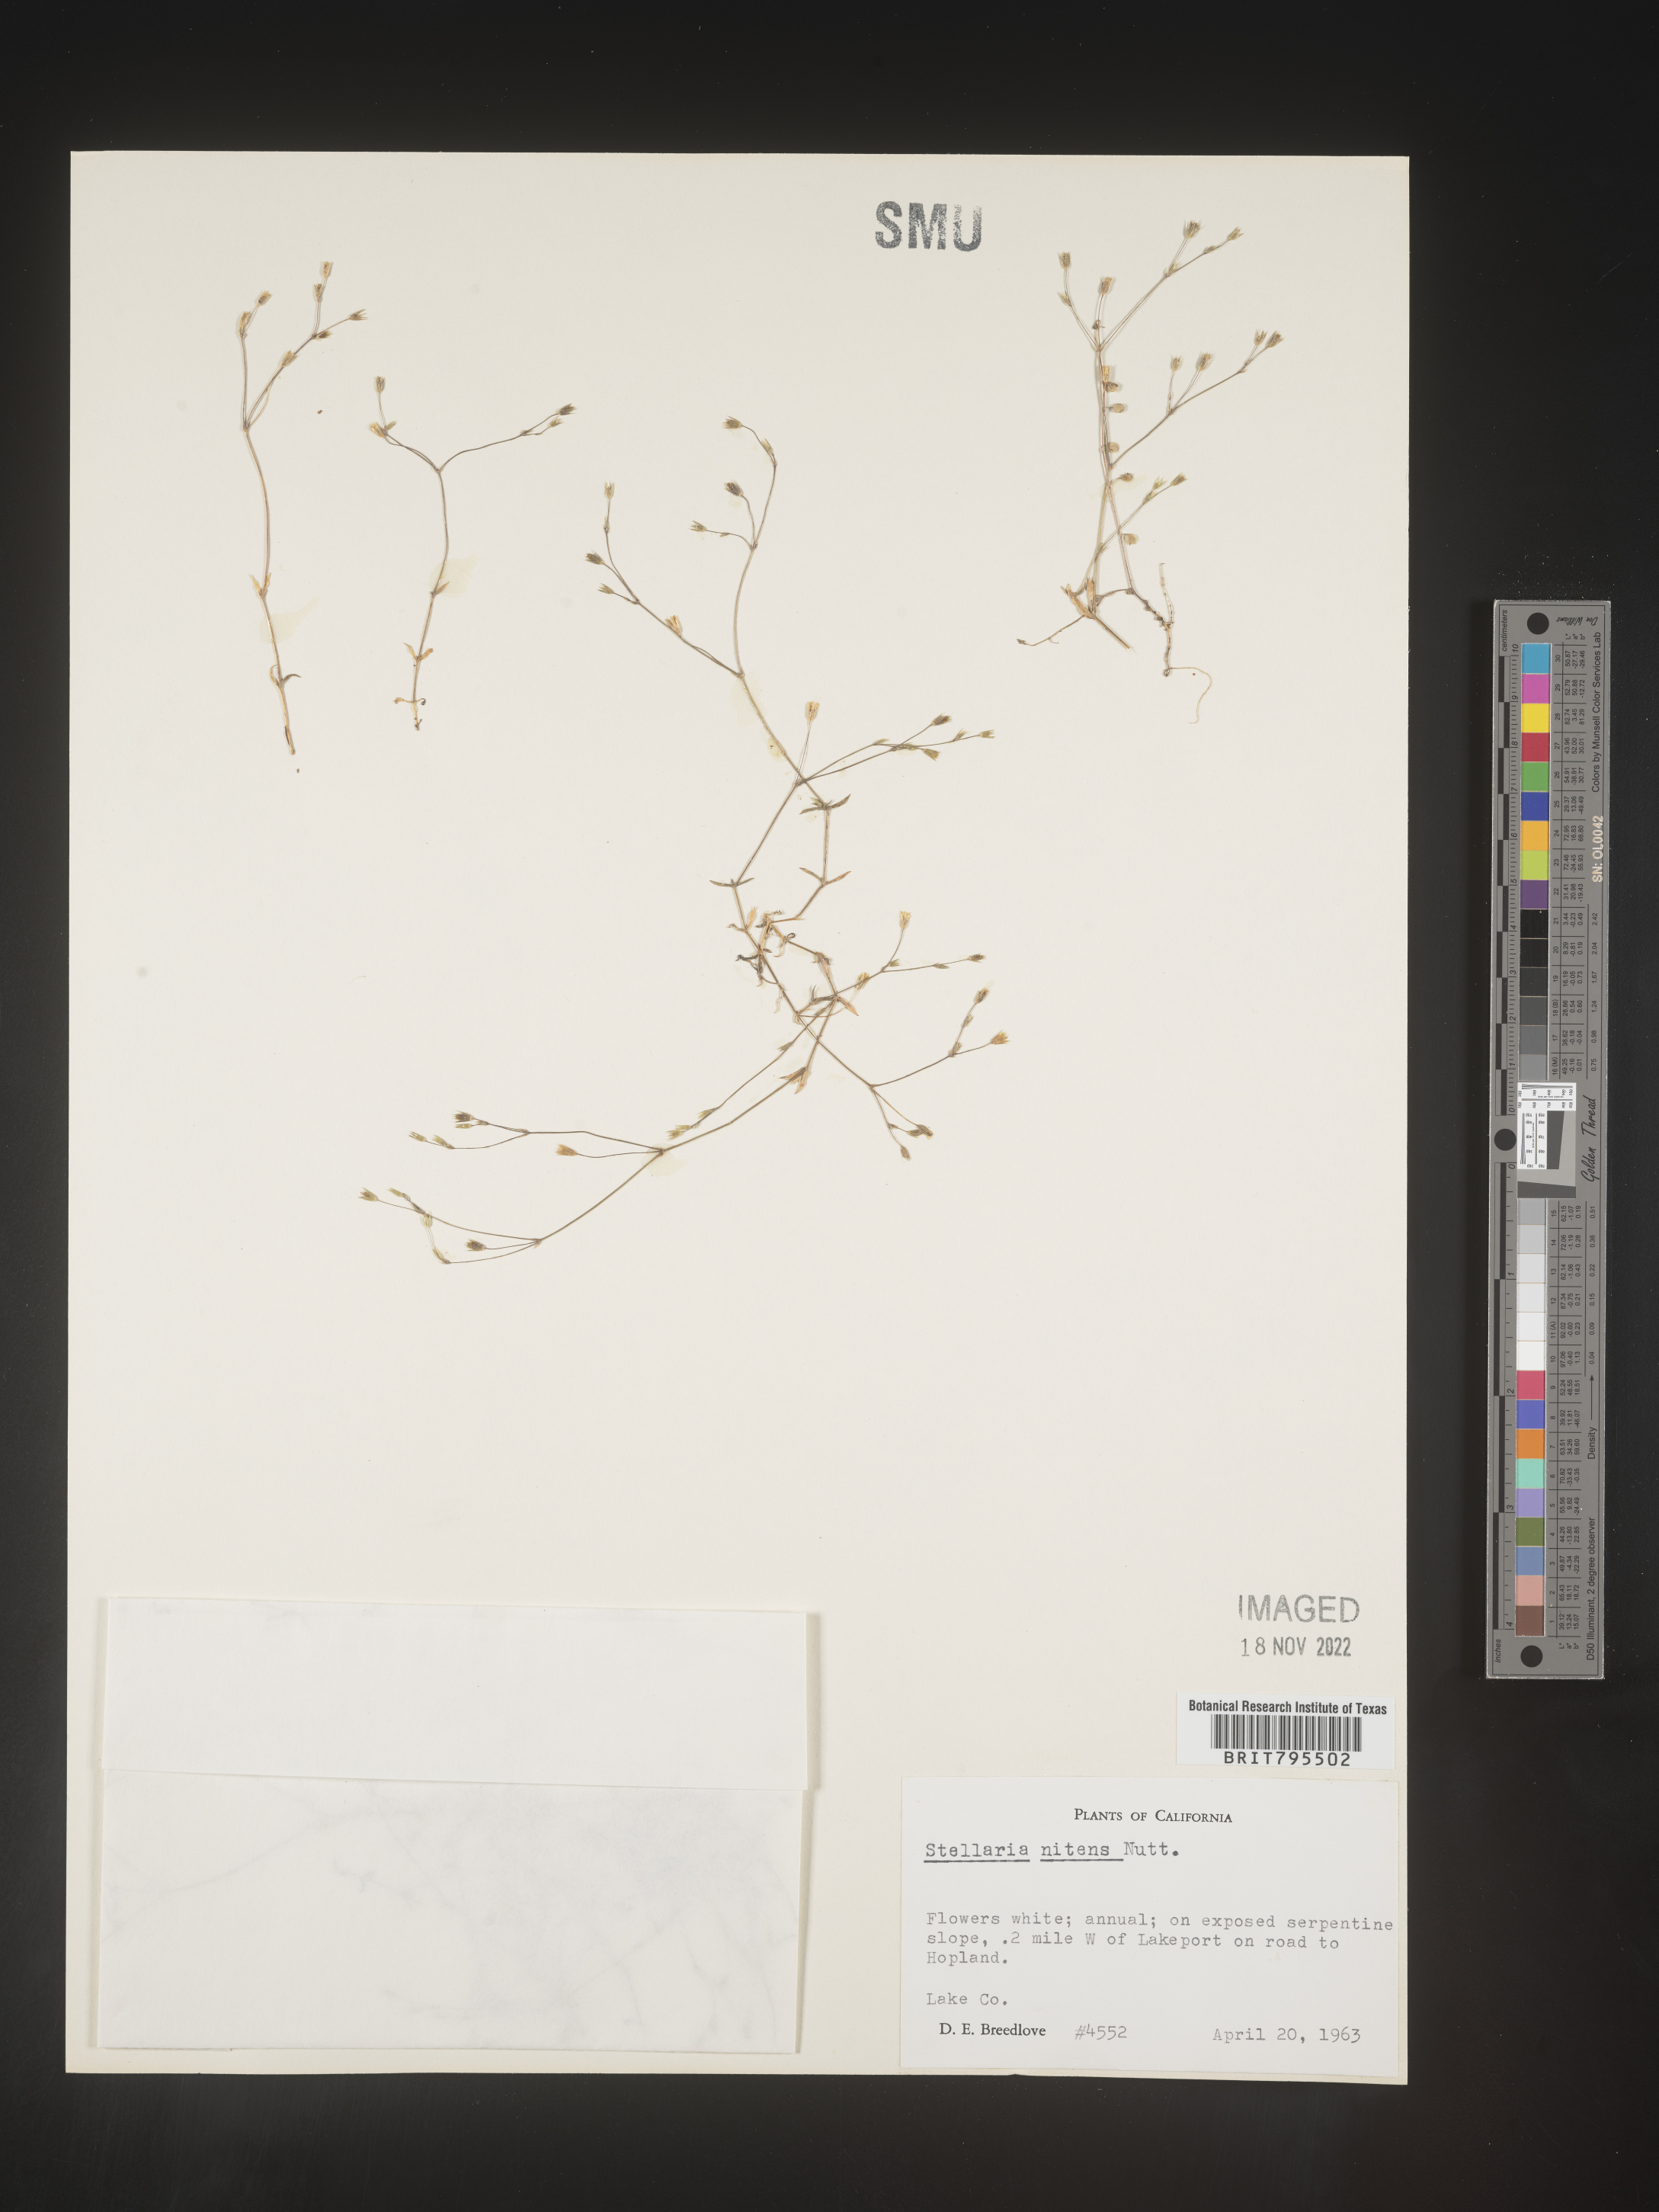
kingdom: Plantae
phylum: Tracheophyta
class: Magnoliopsida
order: Caryophyllales
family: Caryophyllaceae
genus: Stellaria
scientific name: Stellaria nitens
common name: Shining starwort
